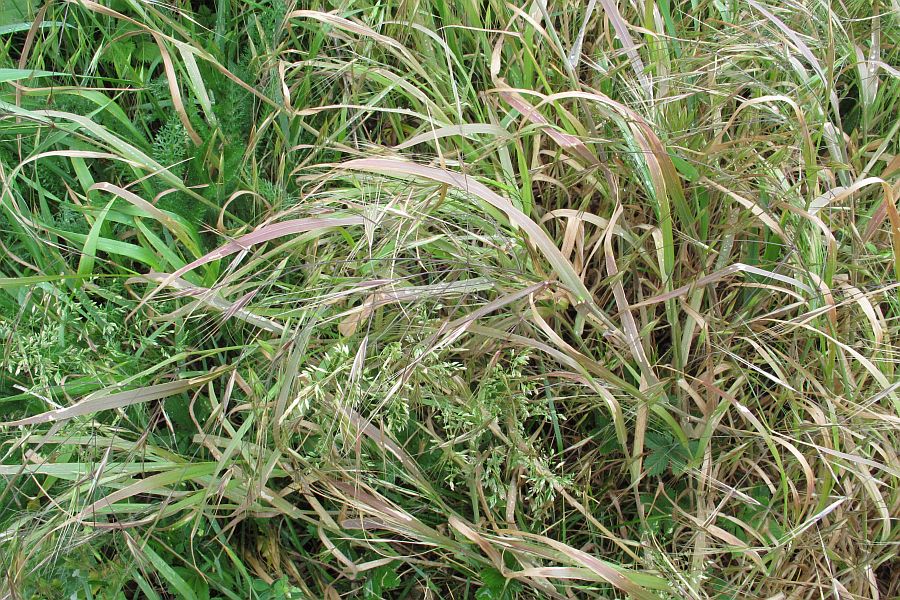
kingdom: Fungi
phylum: Basidiomycota
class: Pucciniomycetes
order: Pucciniales
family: Pucciniaceae
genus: Puccinia
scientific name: Puccinia graminis
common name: græssernes tvecellerust
